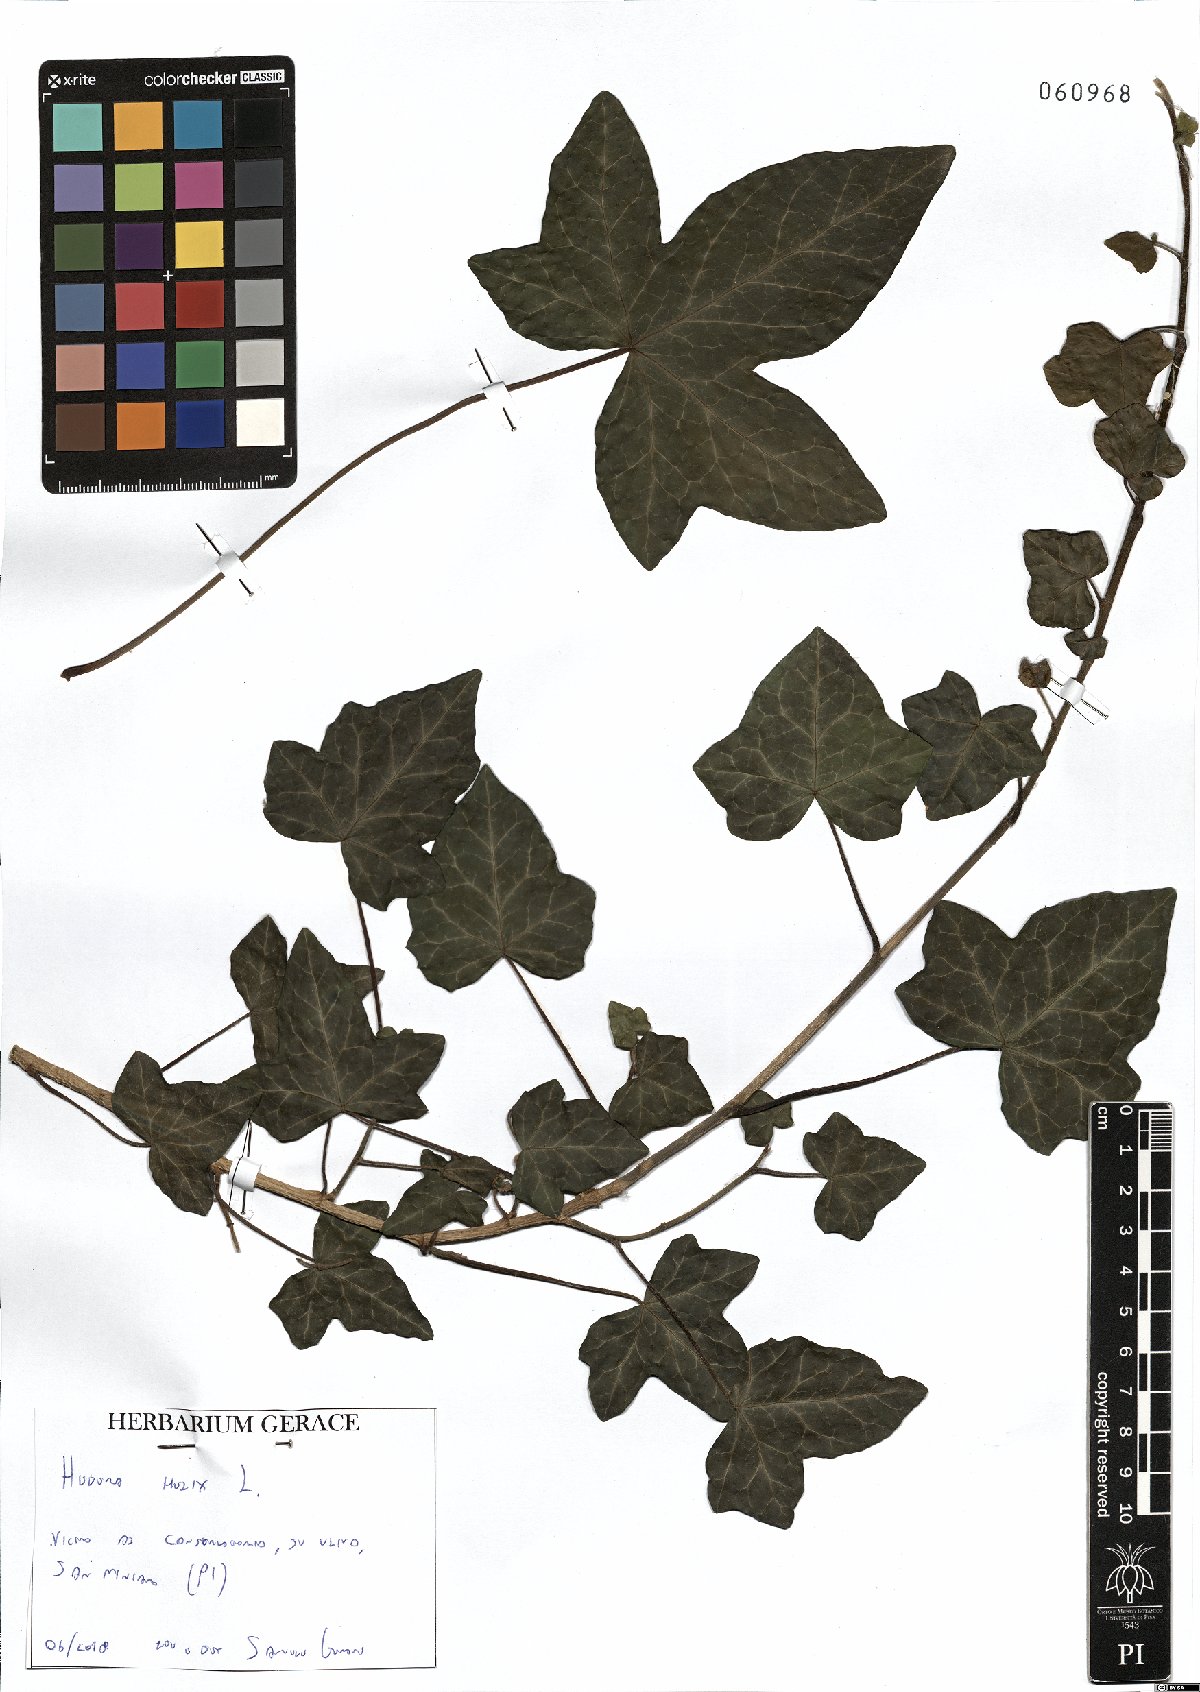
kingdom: Plantae
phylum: Tracheophyta
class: Magnoliopsida
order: Apiales
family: Araliaceae
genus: Hedera
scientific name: Hedera helix
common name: Ivy
